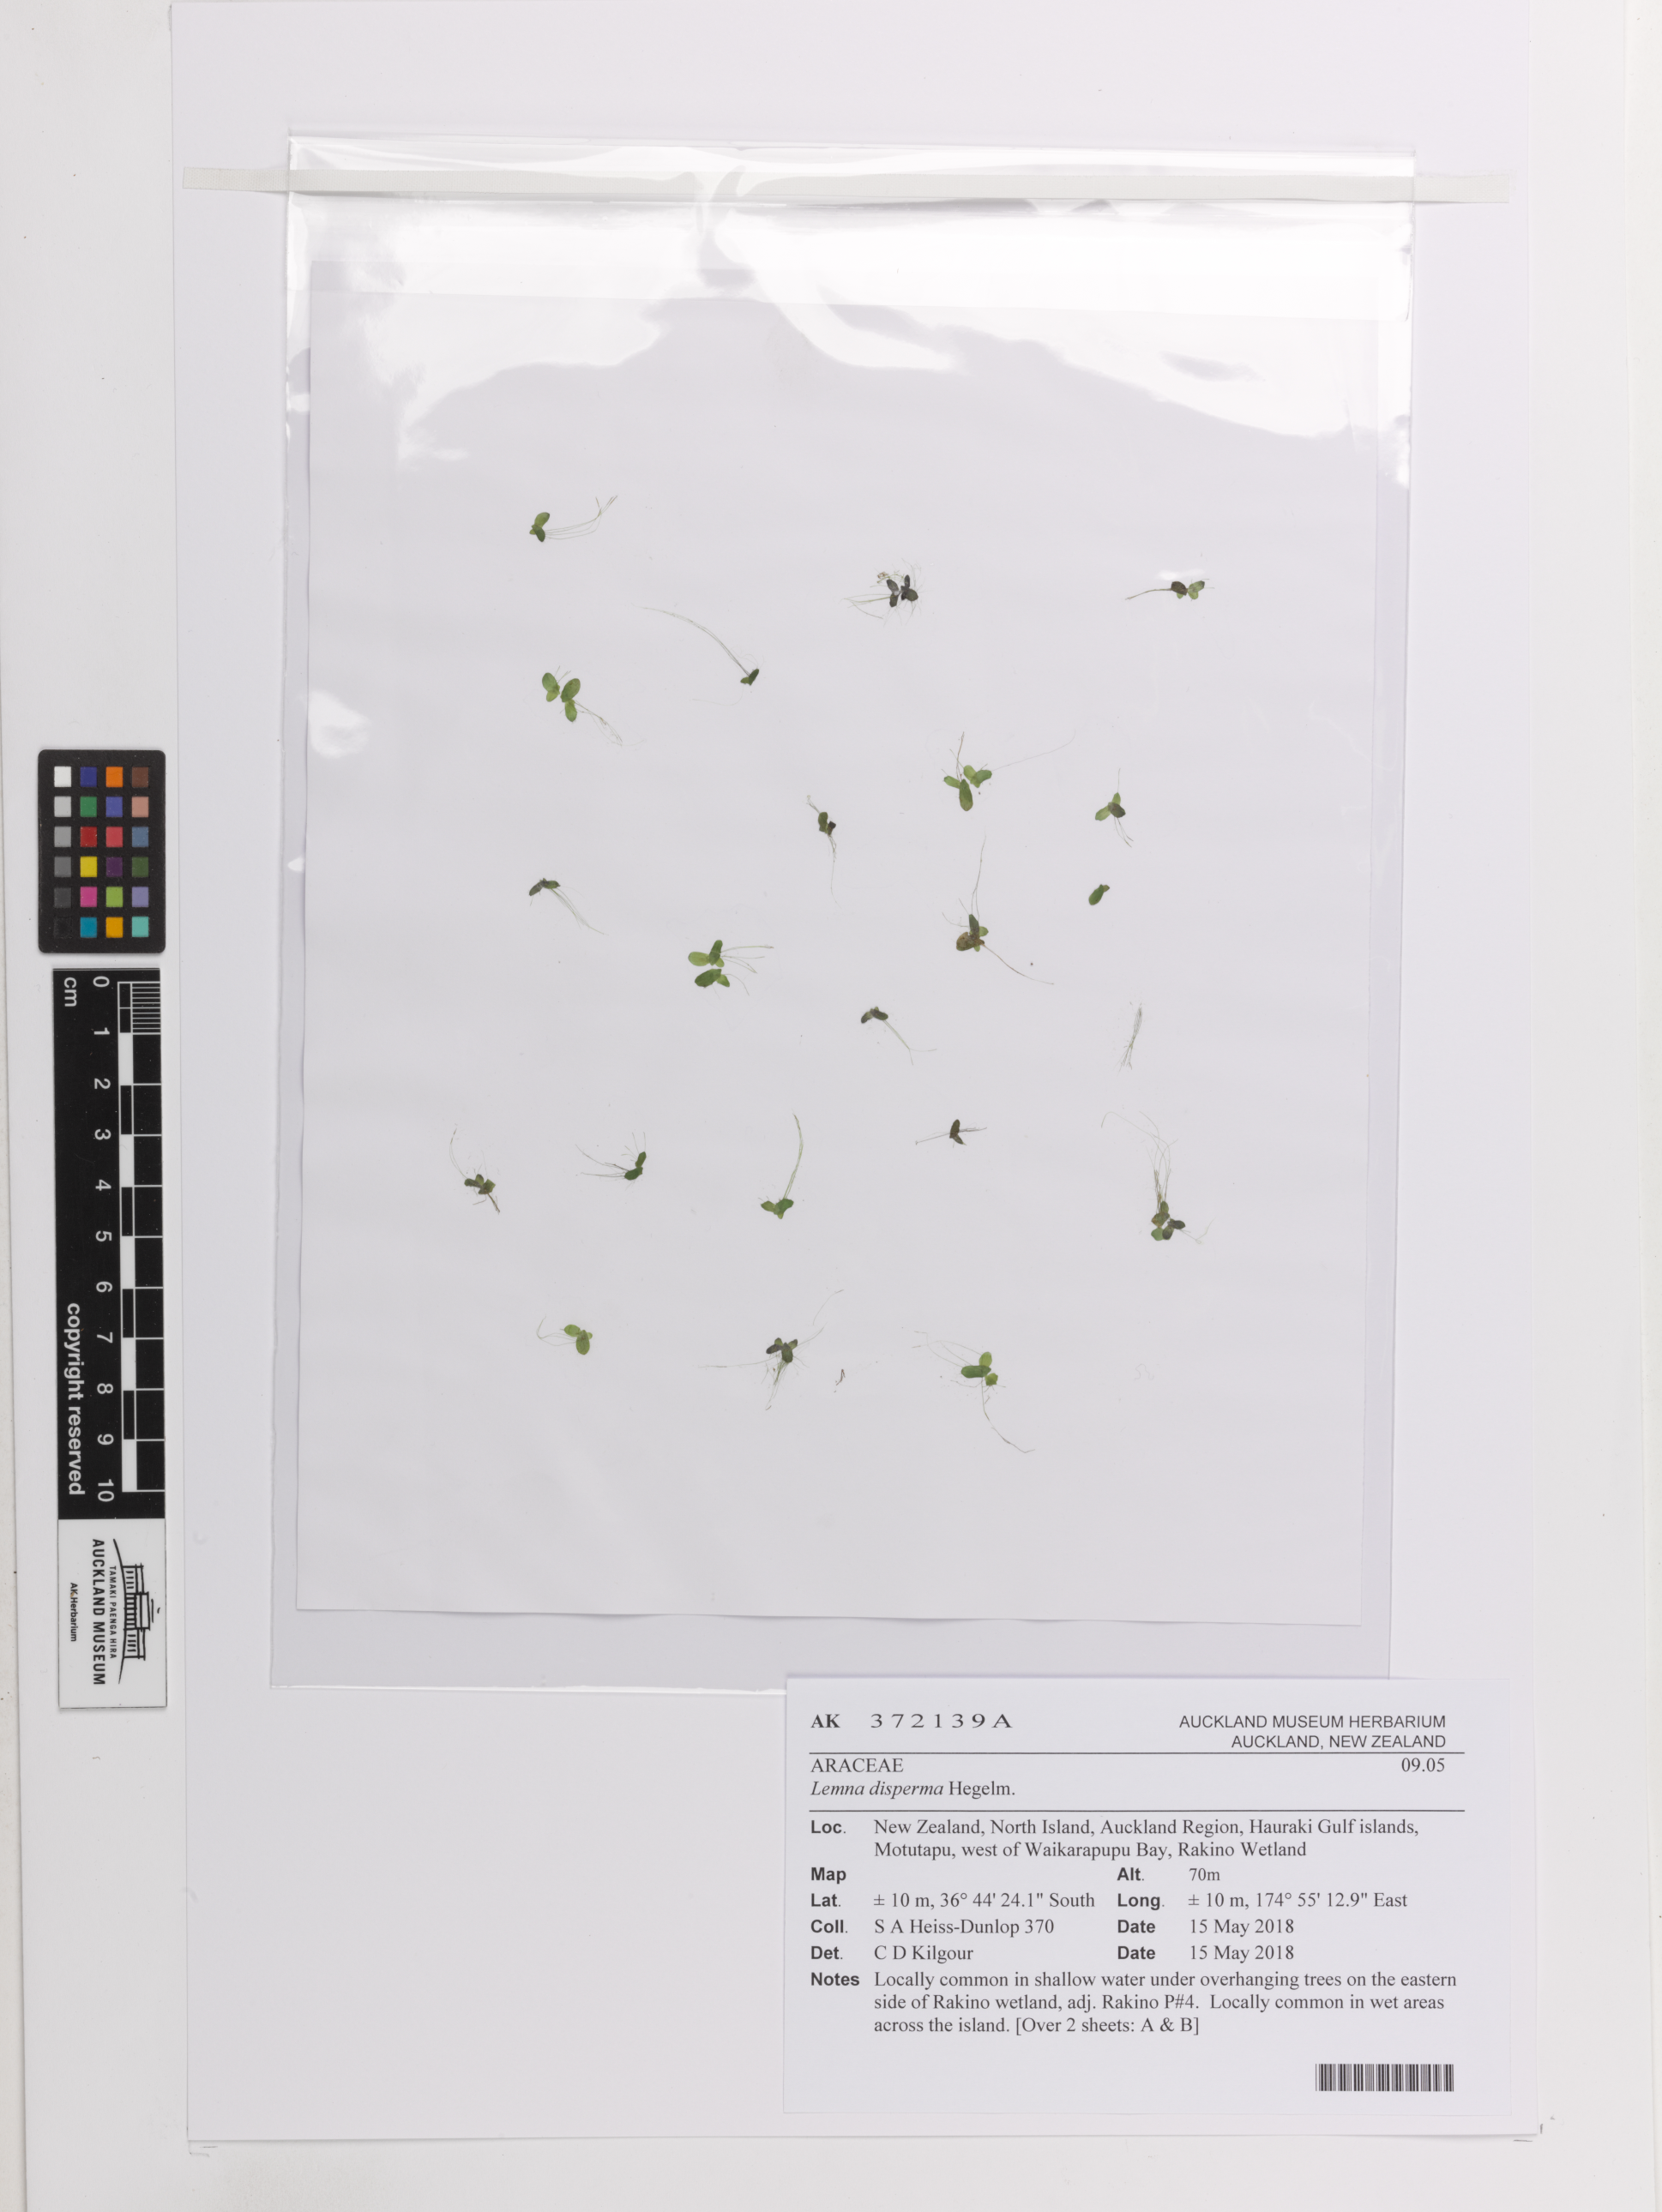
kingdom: Plantae
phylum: Tracheophyta
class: Liliopsida
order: Alismatales
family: Araceae
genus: Lemna
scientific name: Lemna disperma
